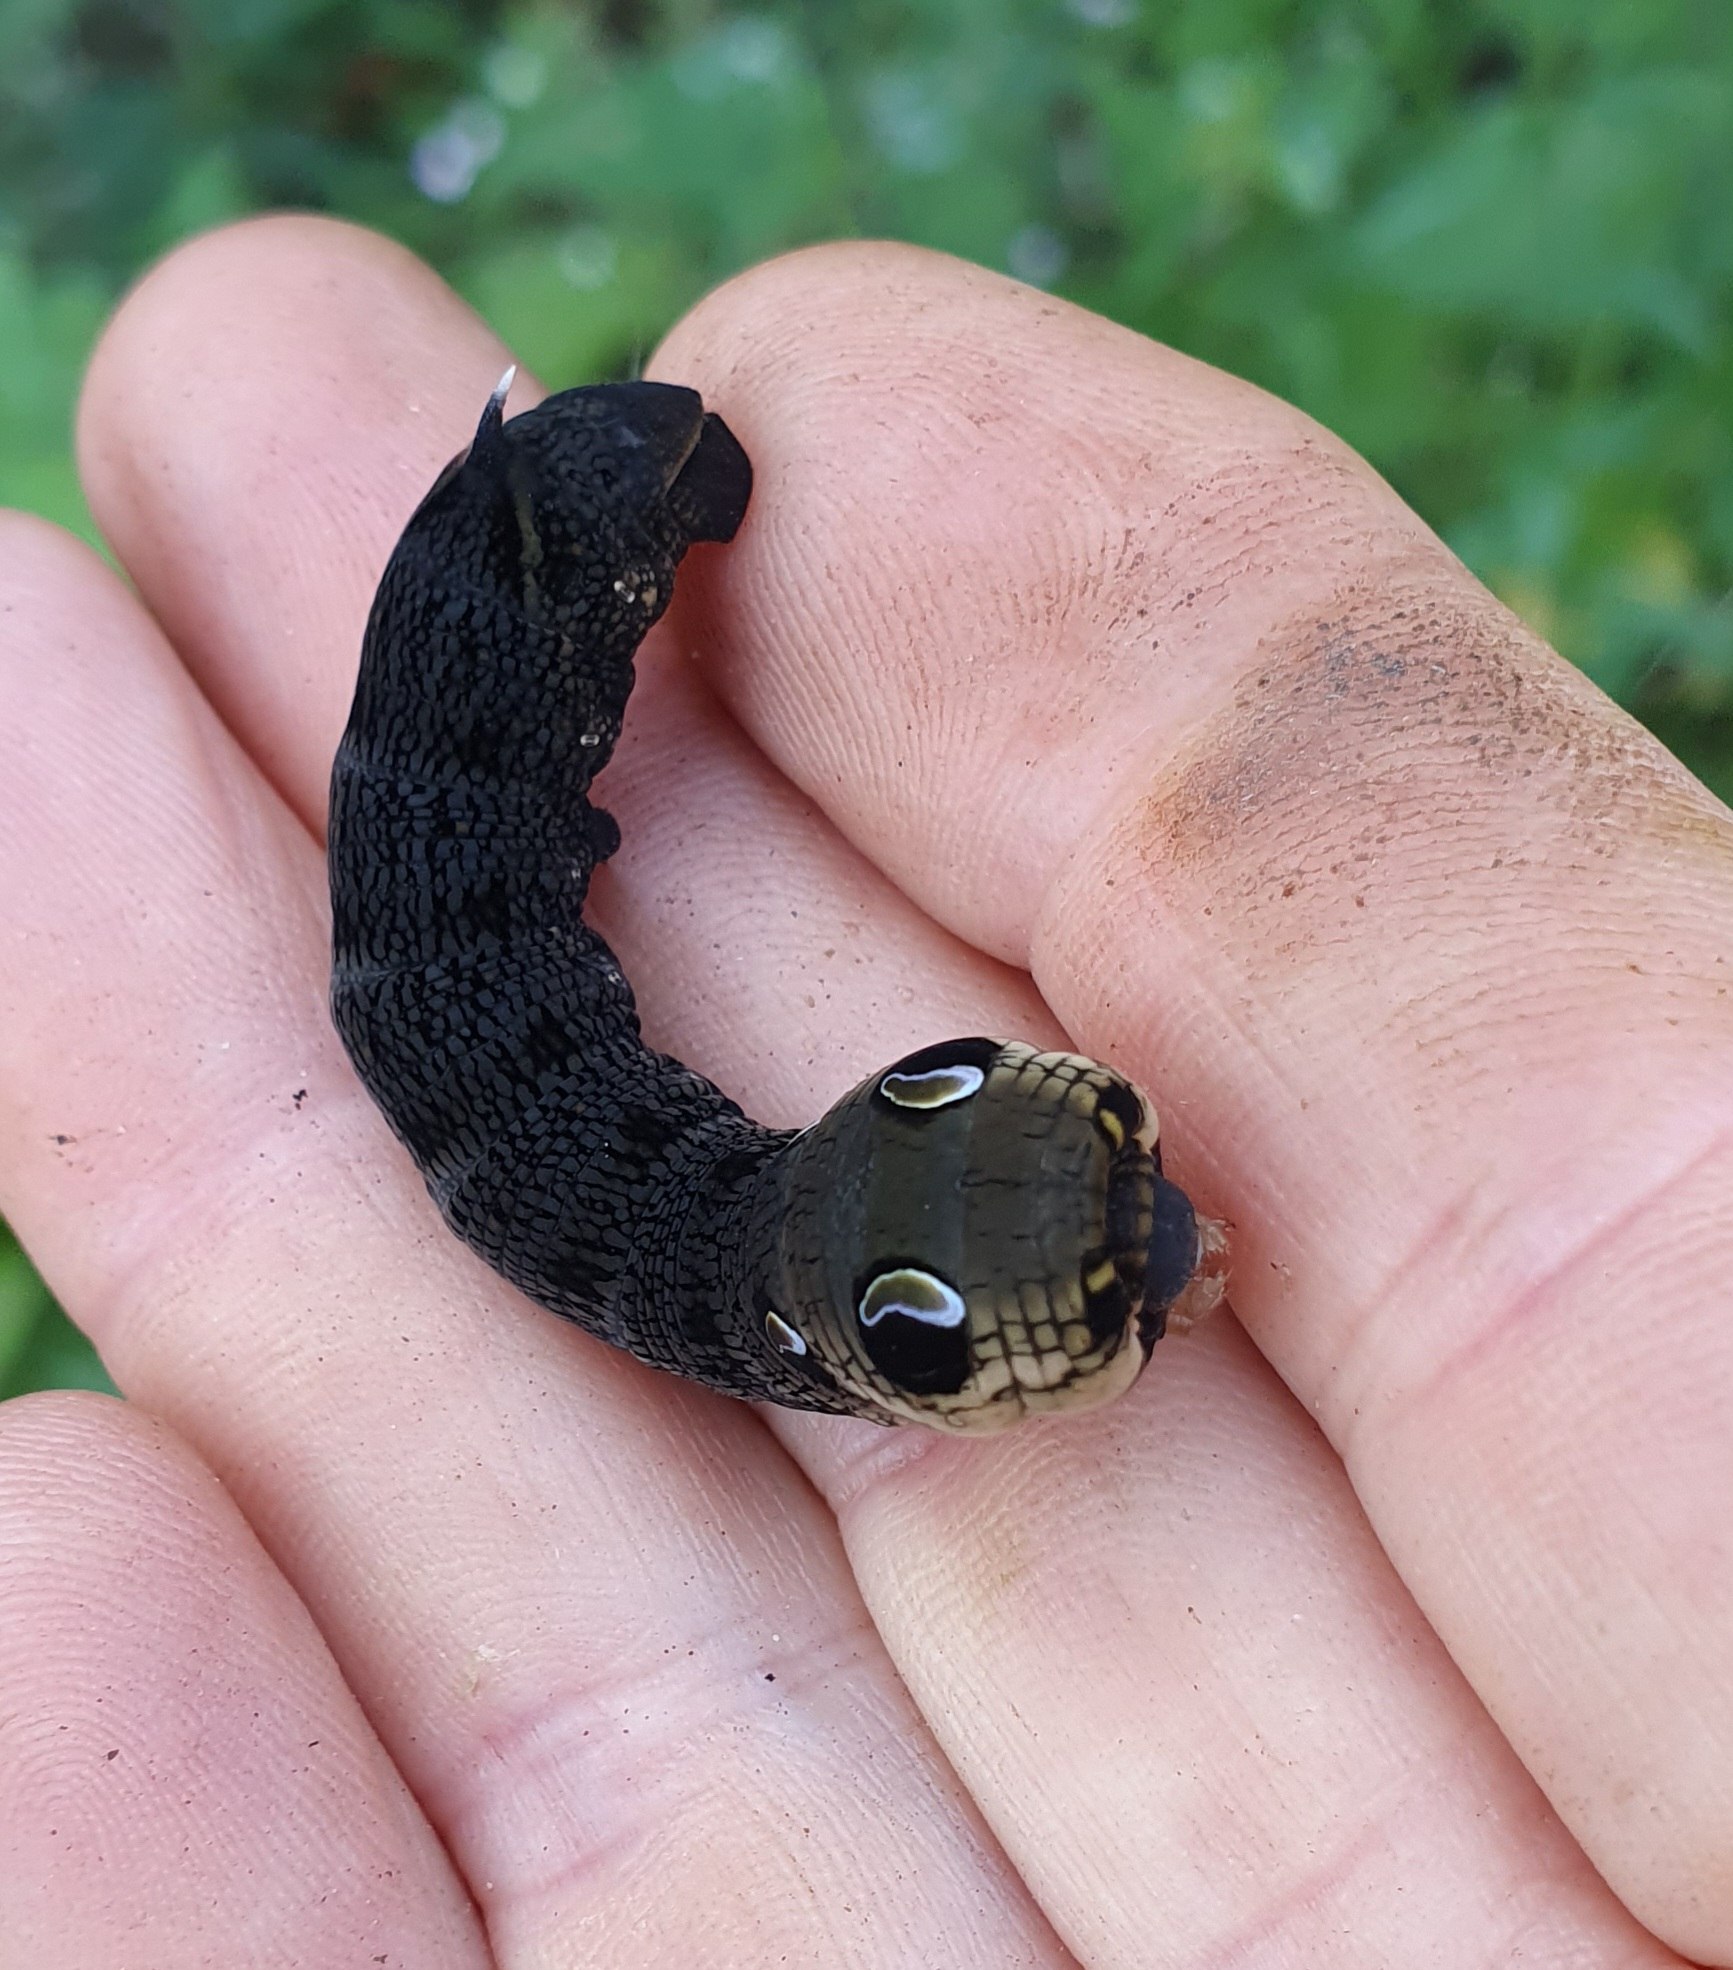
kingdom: Animalia
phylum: Arthropoda
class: Insecta
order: Lepidoptera
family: Sphingidae
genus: Deilephila
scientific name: Deilephila elpenor
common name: Dueurtsværmer
